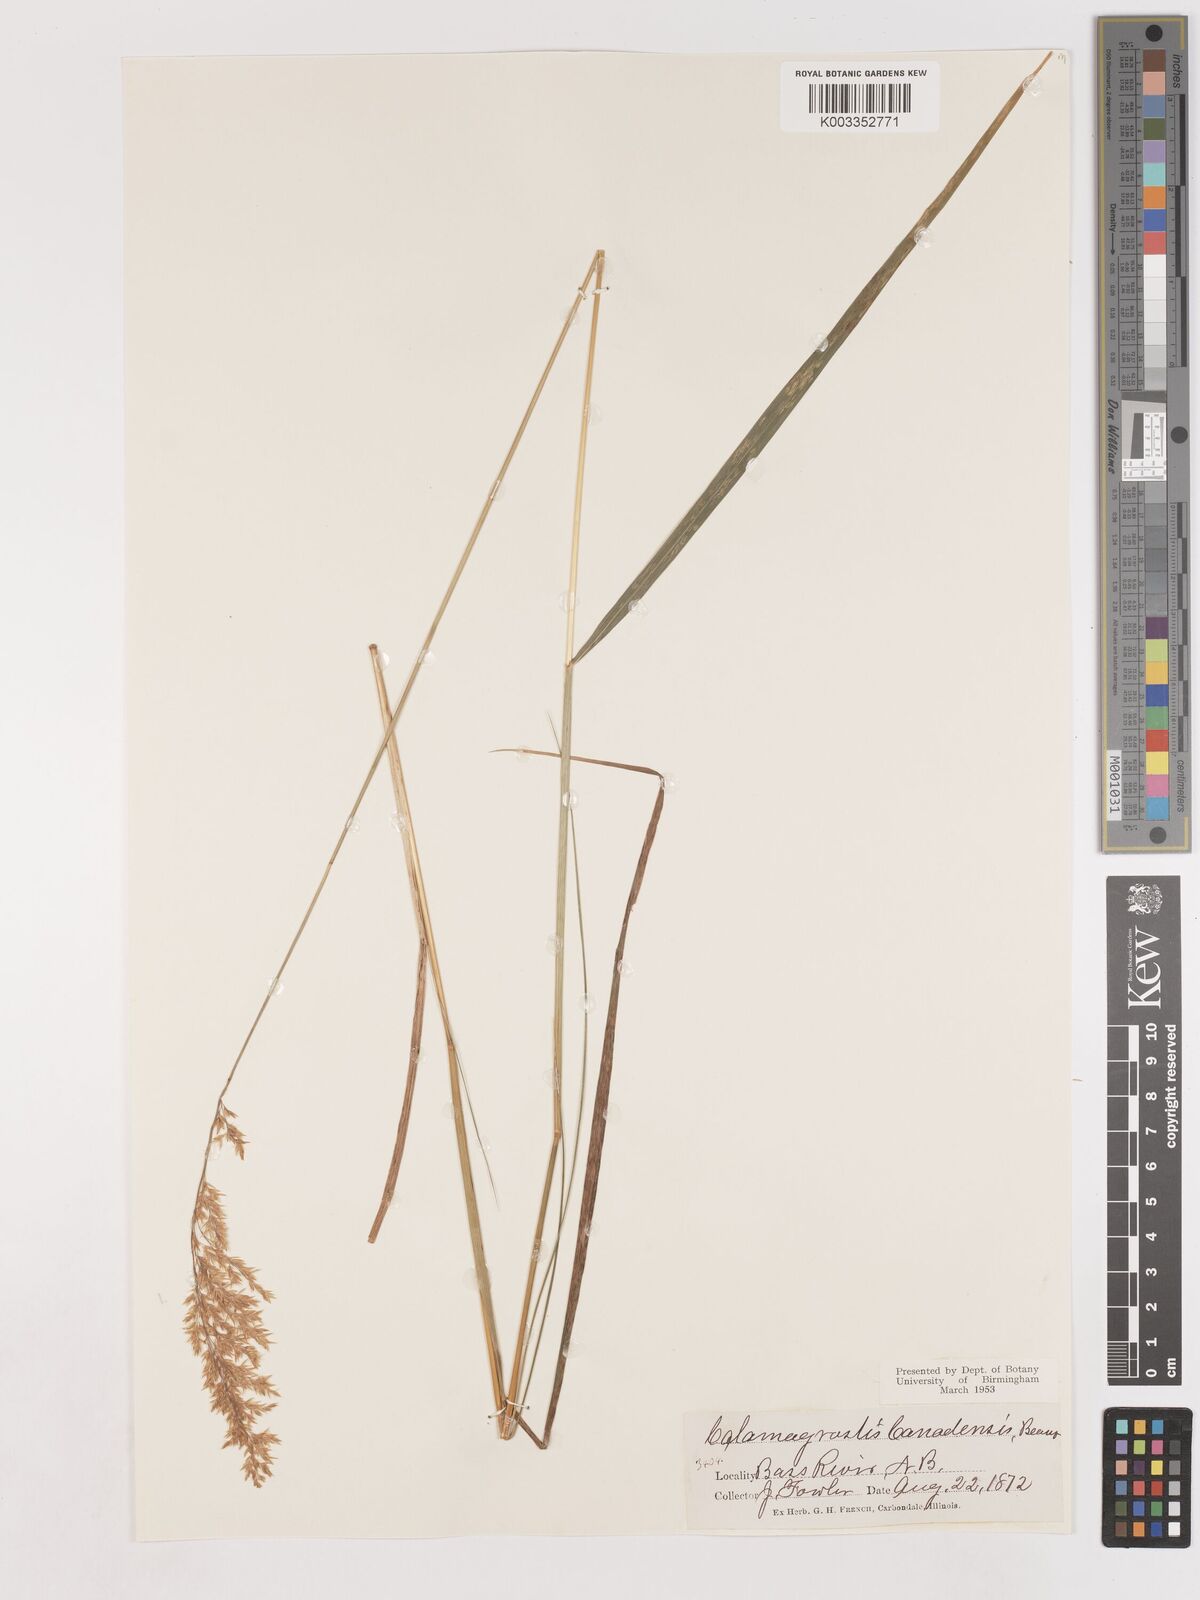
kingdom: Plantae
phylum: Tracheophyta
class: Liliopsida
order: Poales
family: Poaceae
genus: Calamagrostis
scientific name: Calamagrostis canadensis
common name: Canada bluejoint
